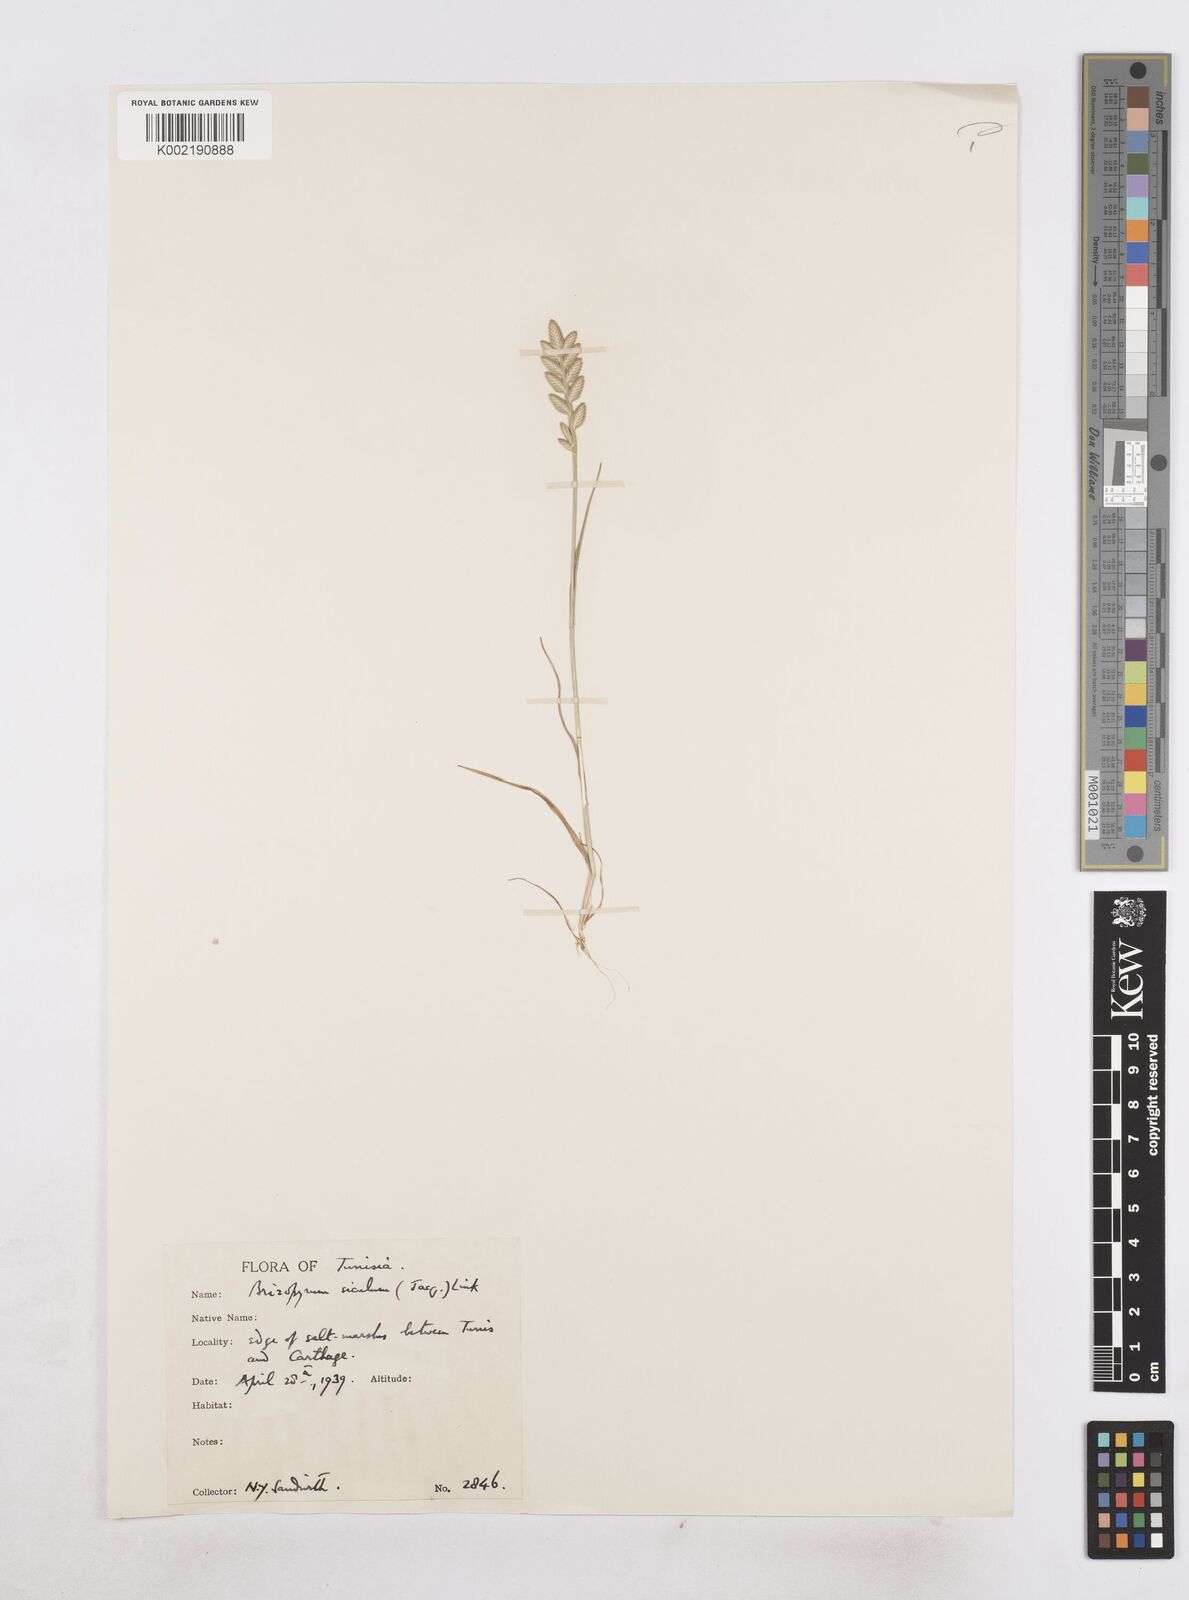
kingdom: Plantae
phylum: Tracheophyta
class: Liliopsida
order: Poales
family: Poaceae
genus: Desmazeria
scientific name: Desmazeria sicula
